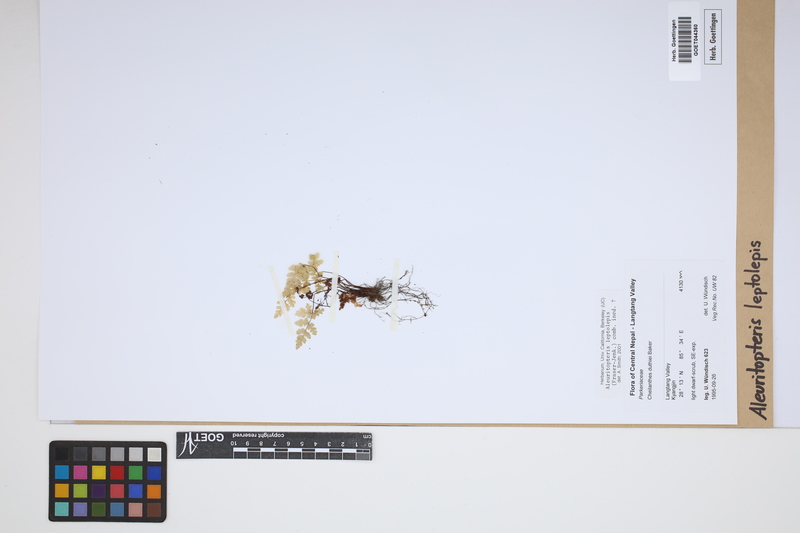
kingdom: Plantae
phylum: Tracheophyta
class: Polypodiopsida
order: Polypodiales
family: Pteridaceae
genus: Aleuritopteris
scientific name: Aleuritopteris leptolepis
